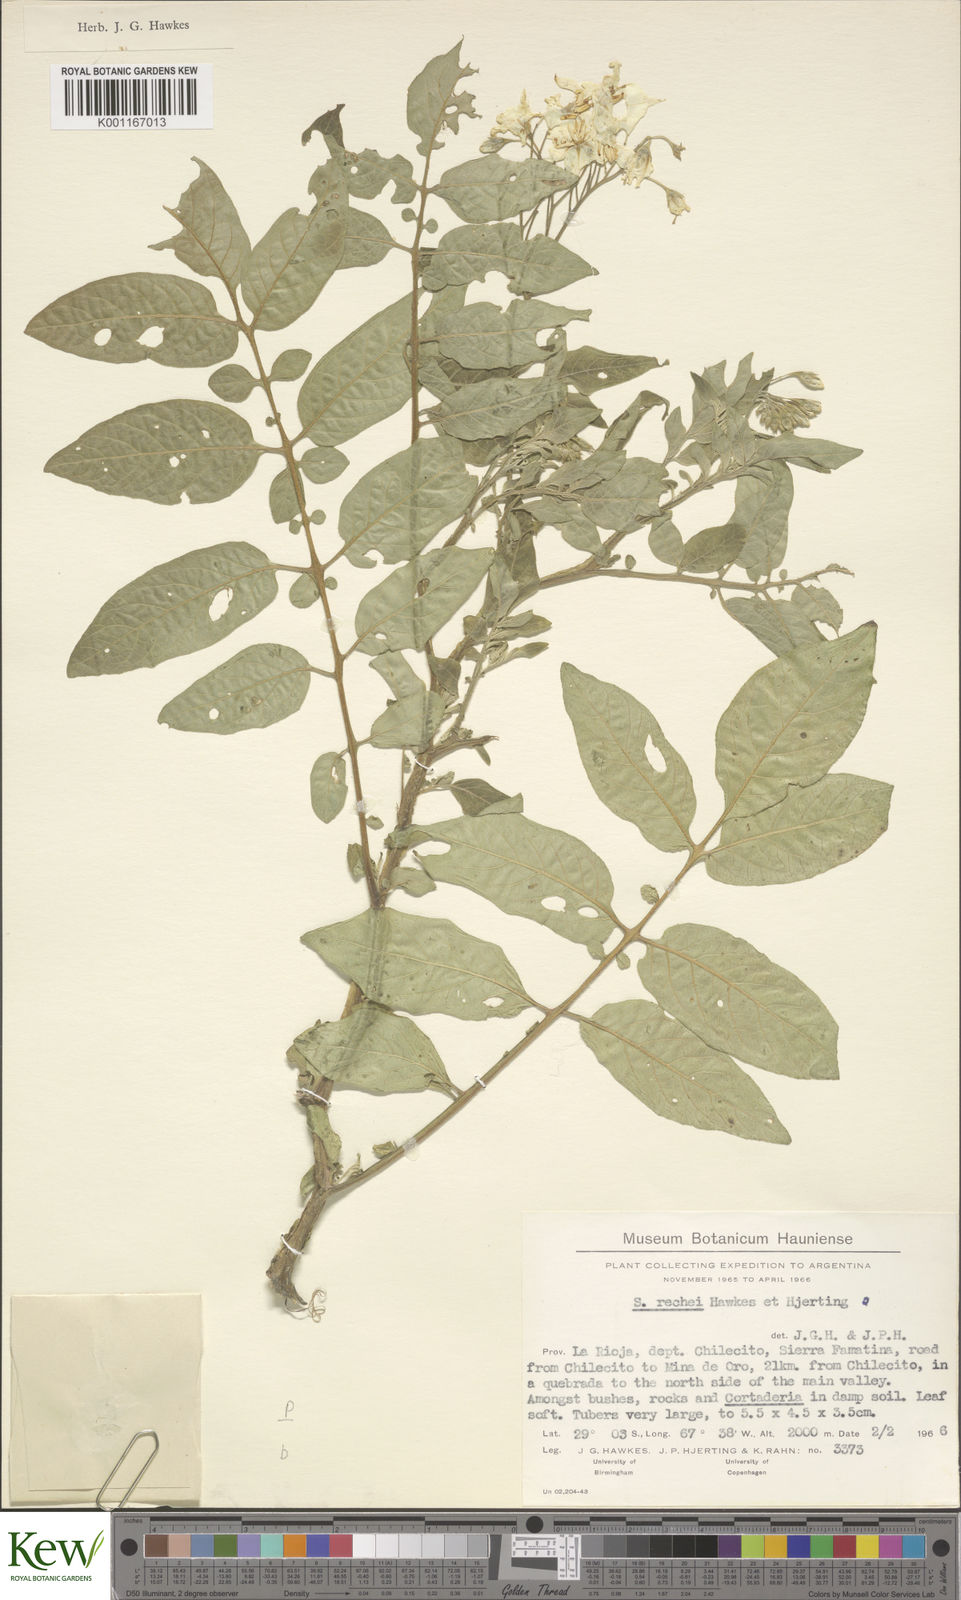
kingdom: Plantae
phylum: Tracheophyta
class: Magnoliopsida
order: Solanales
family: Solanaceae
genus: Solanum
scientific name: Solanum rechei
